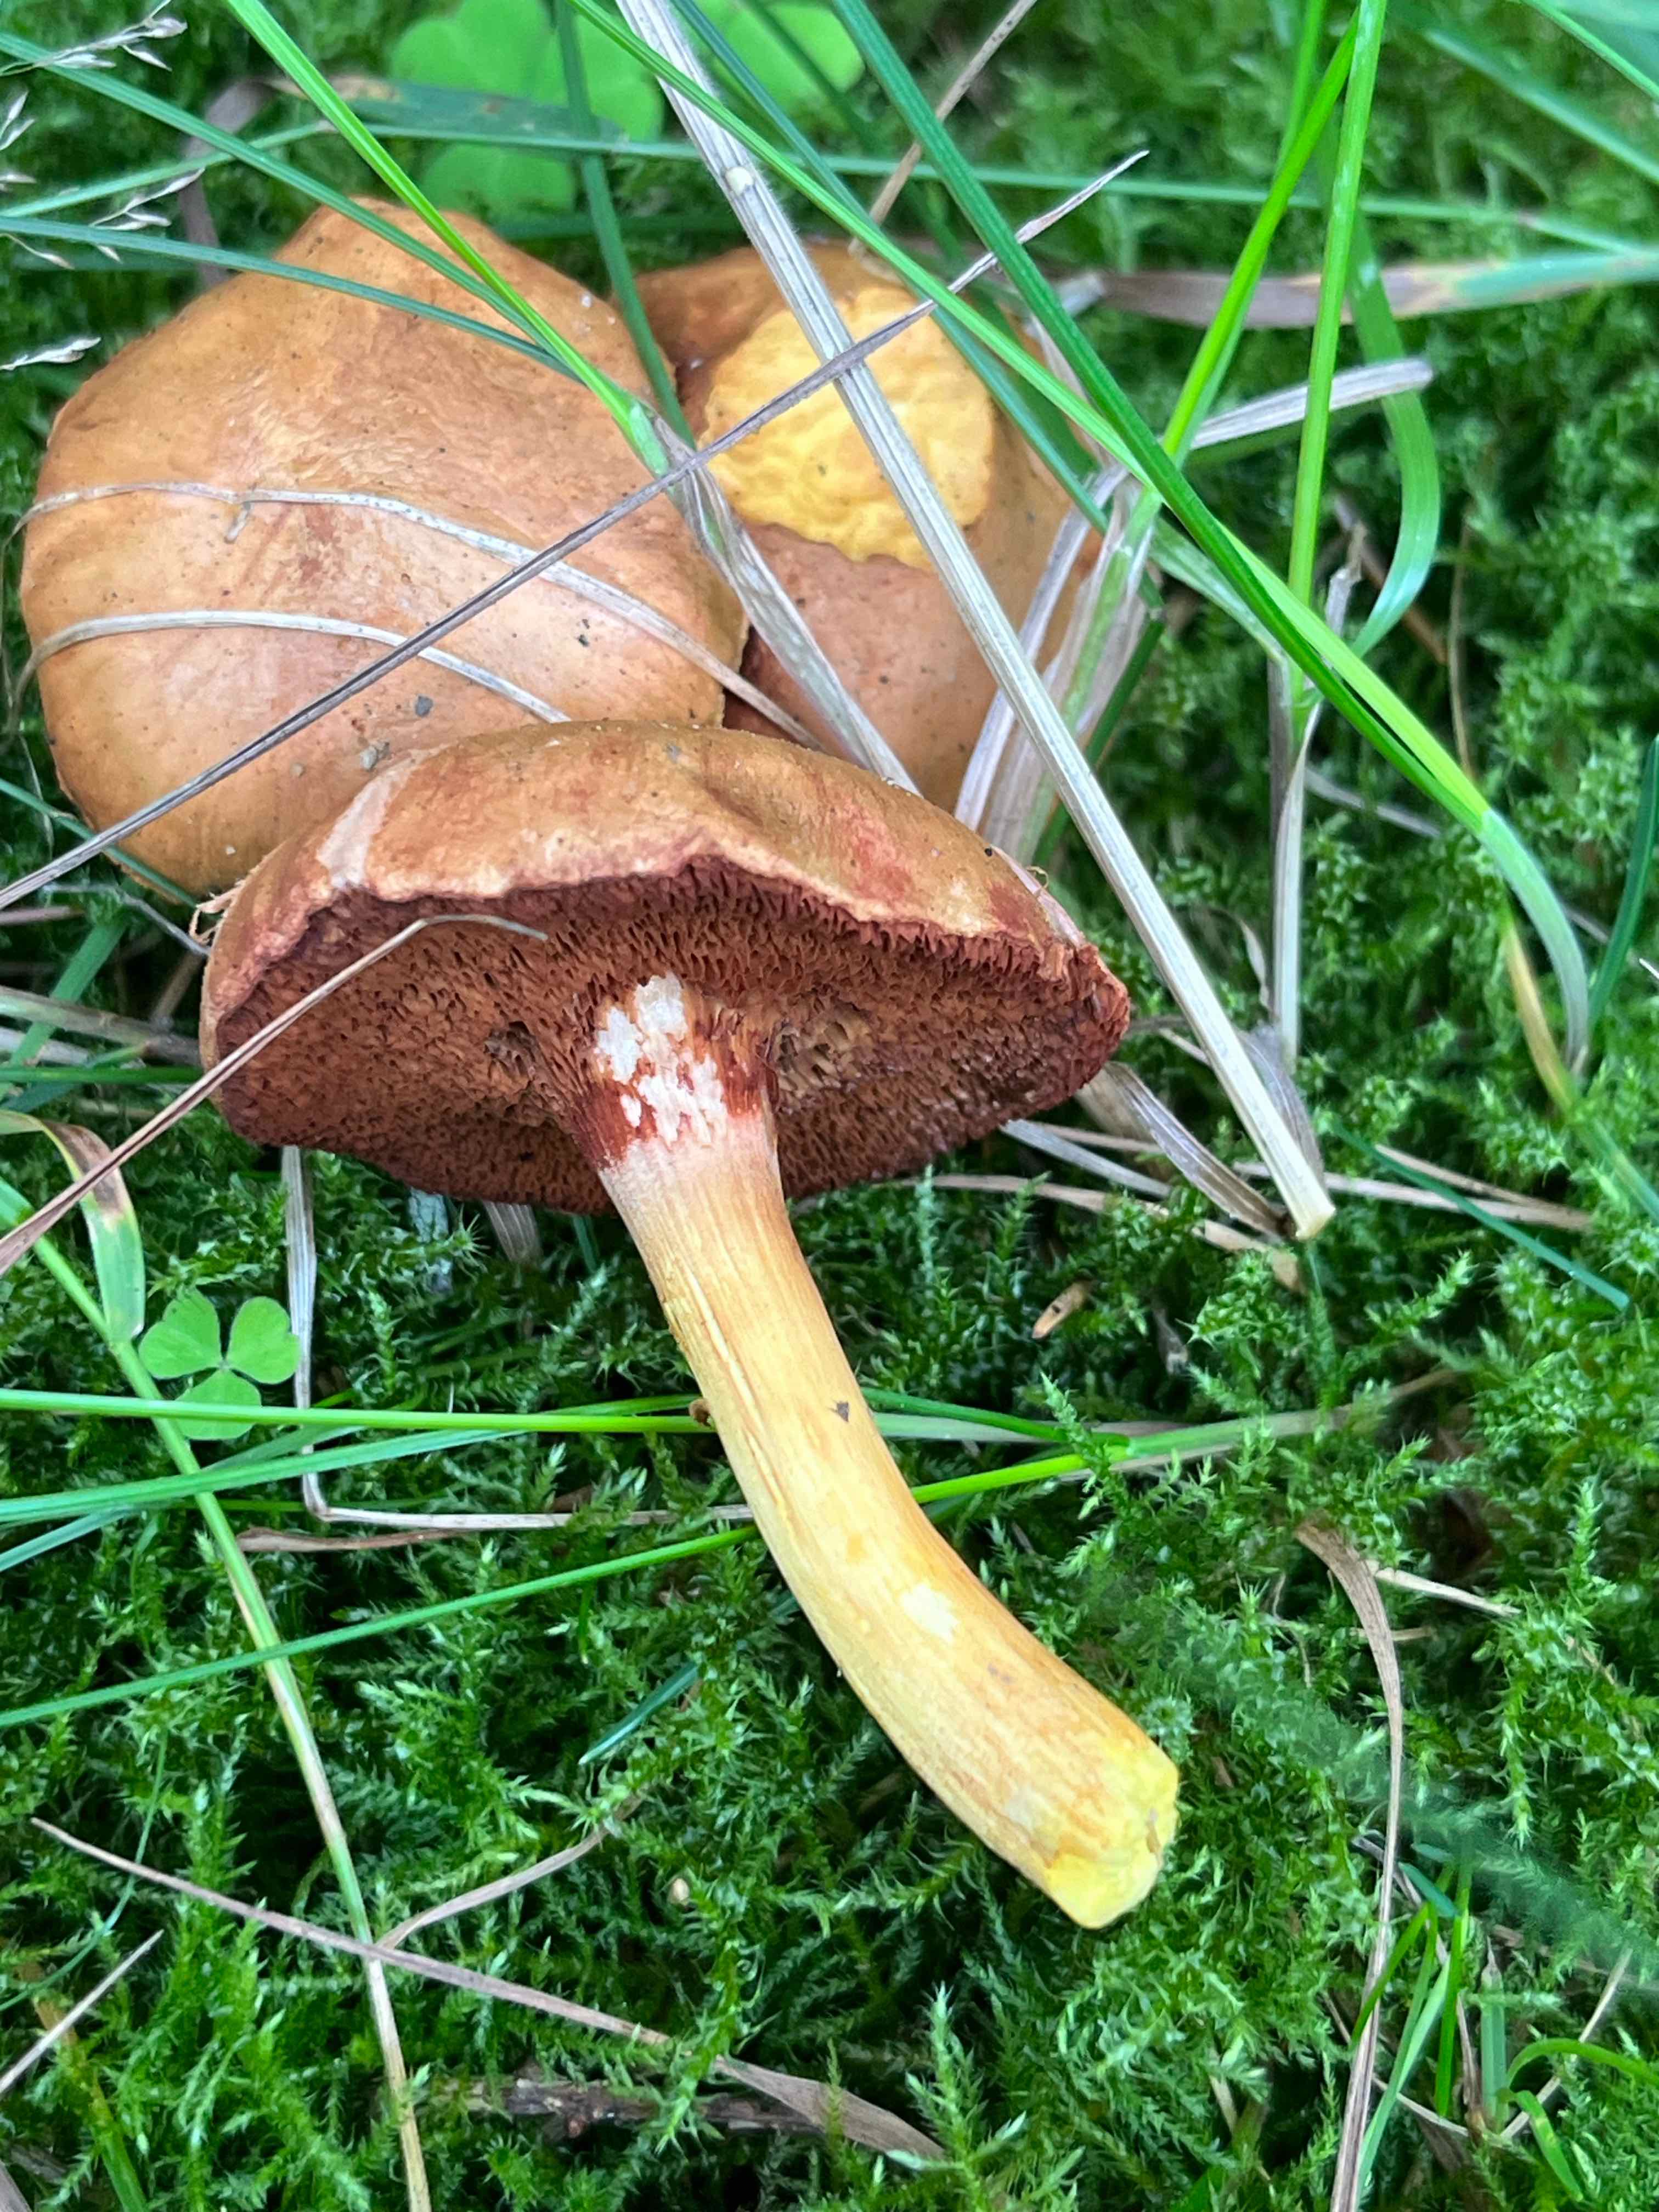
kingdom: Fungi
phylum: Basidiomycota
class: Agaricomycetes
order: Boletales
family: Boletaceae
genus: Chalciporus
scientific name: Chalciporus piperatus
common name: peberrørhat
